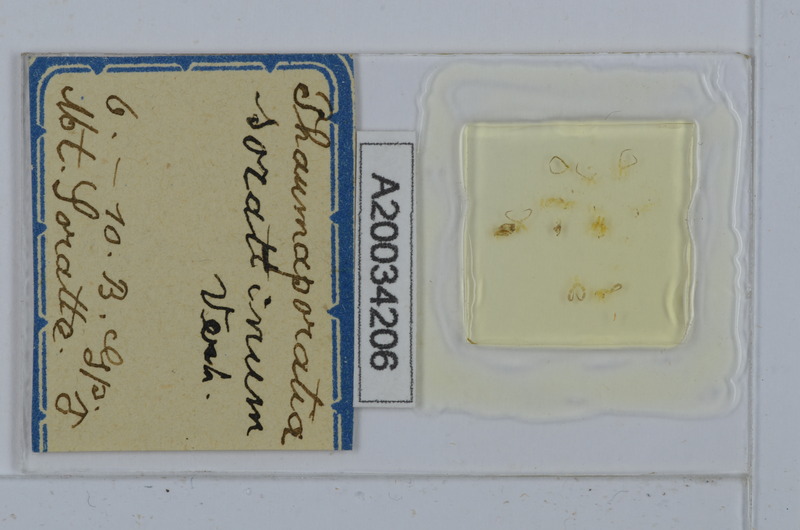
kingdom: Animalia
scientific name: Animalia
